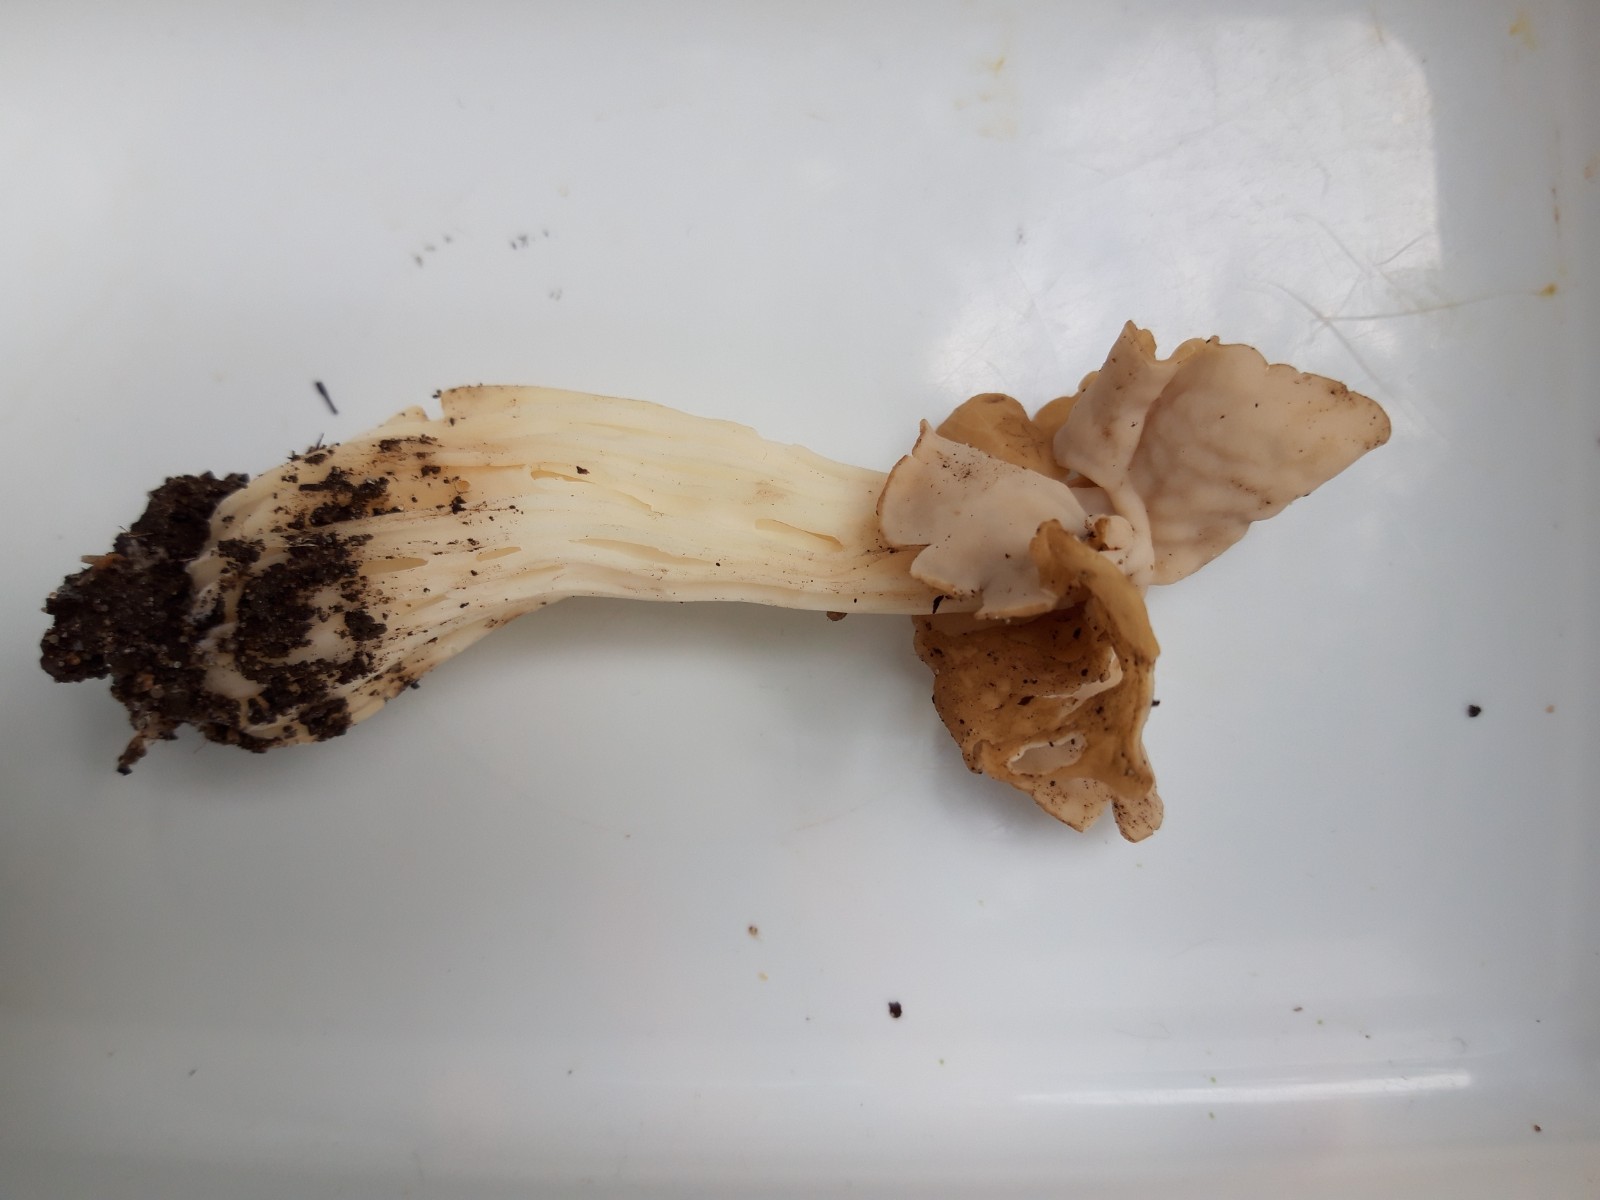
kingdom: Fungi
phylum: Ascomycota
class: Pezizomycetes
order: Pezizales
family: Helvellaceae
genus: Helvella
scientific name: Helvella crispa
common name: kruset foldhat
